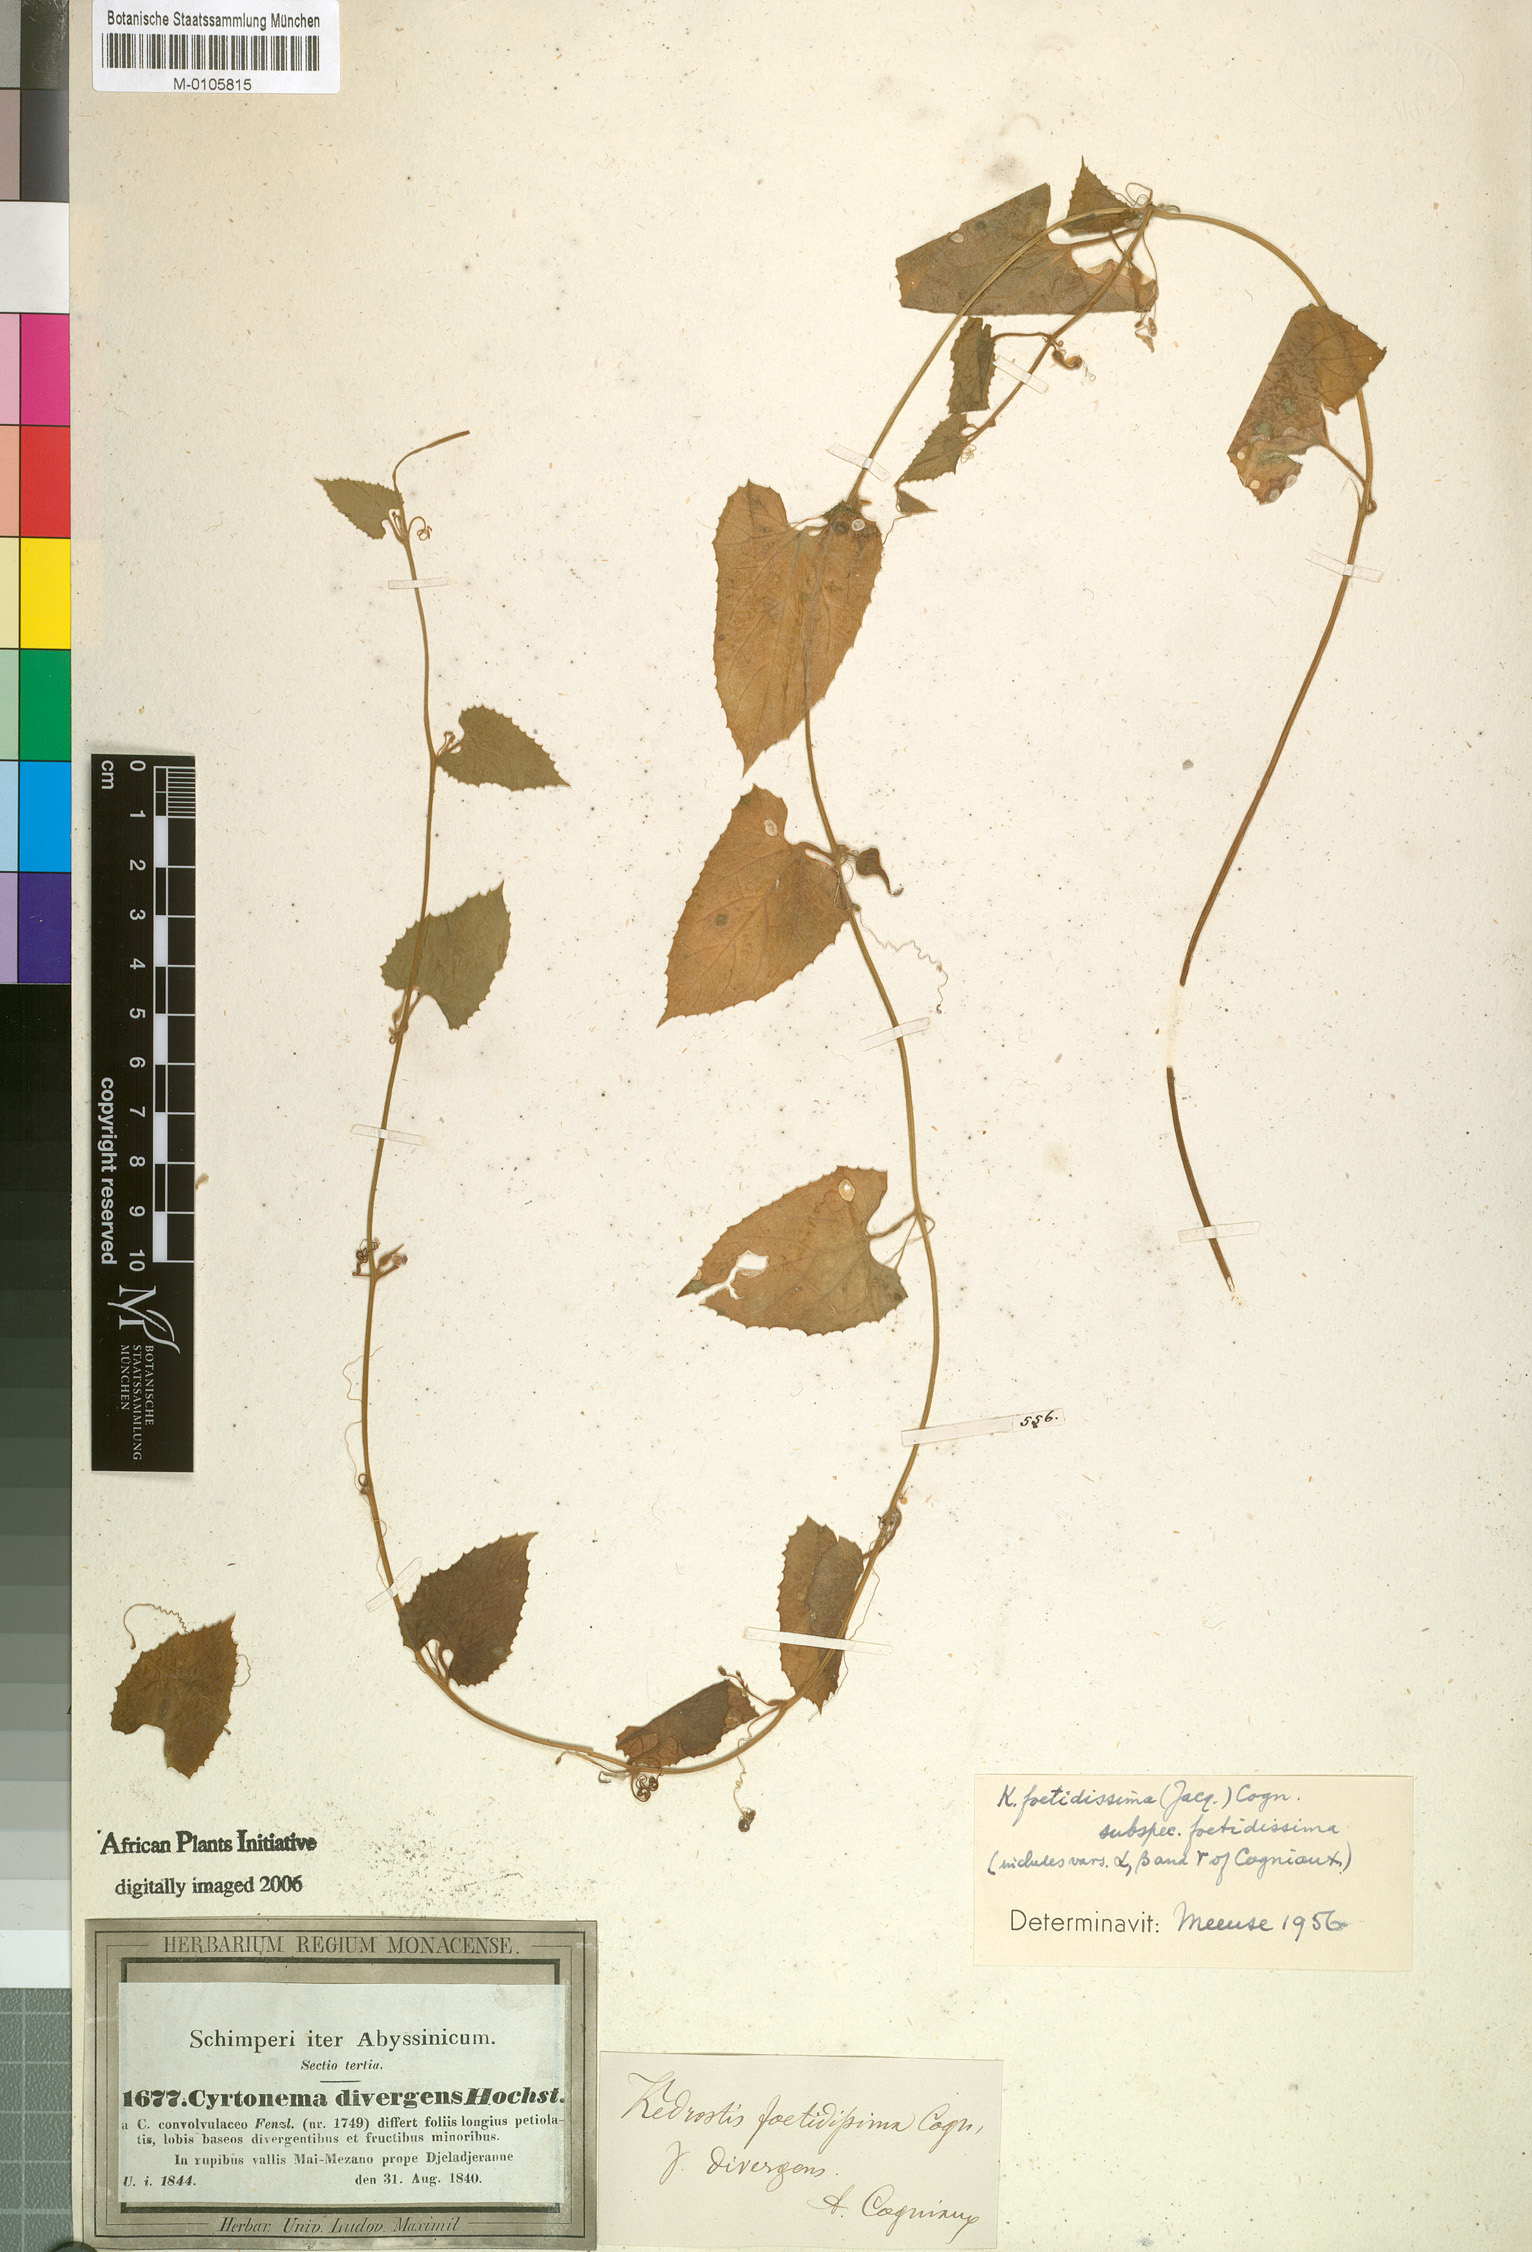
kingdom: Plantae
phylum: Tracheophyta
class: Magnoliopsida
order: Cucurbitales
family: Cucurbitaceae
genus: Kedrostis
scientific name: Kedrostis foetidissima
